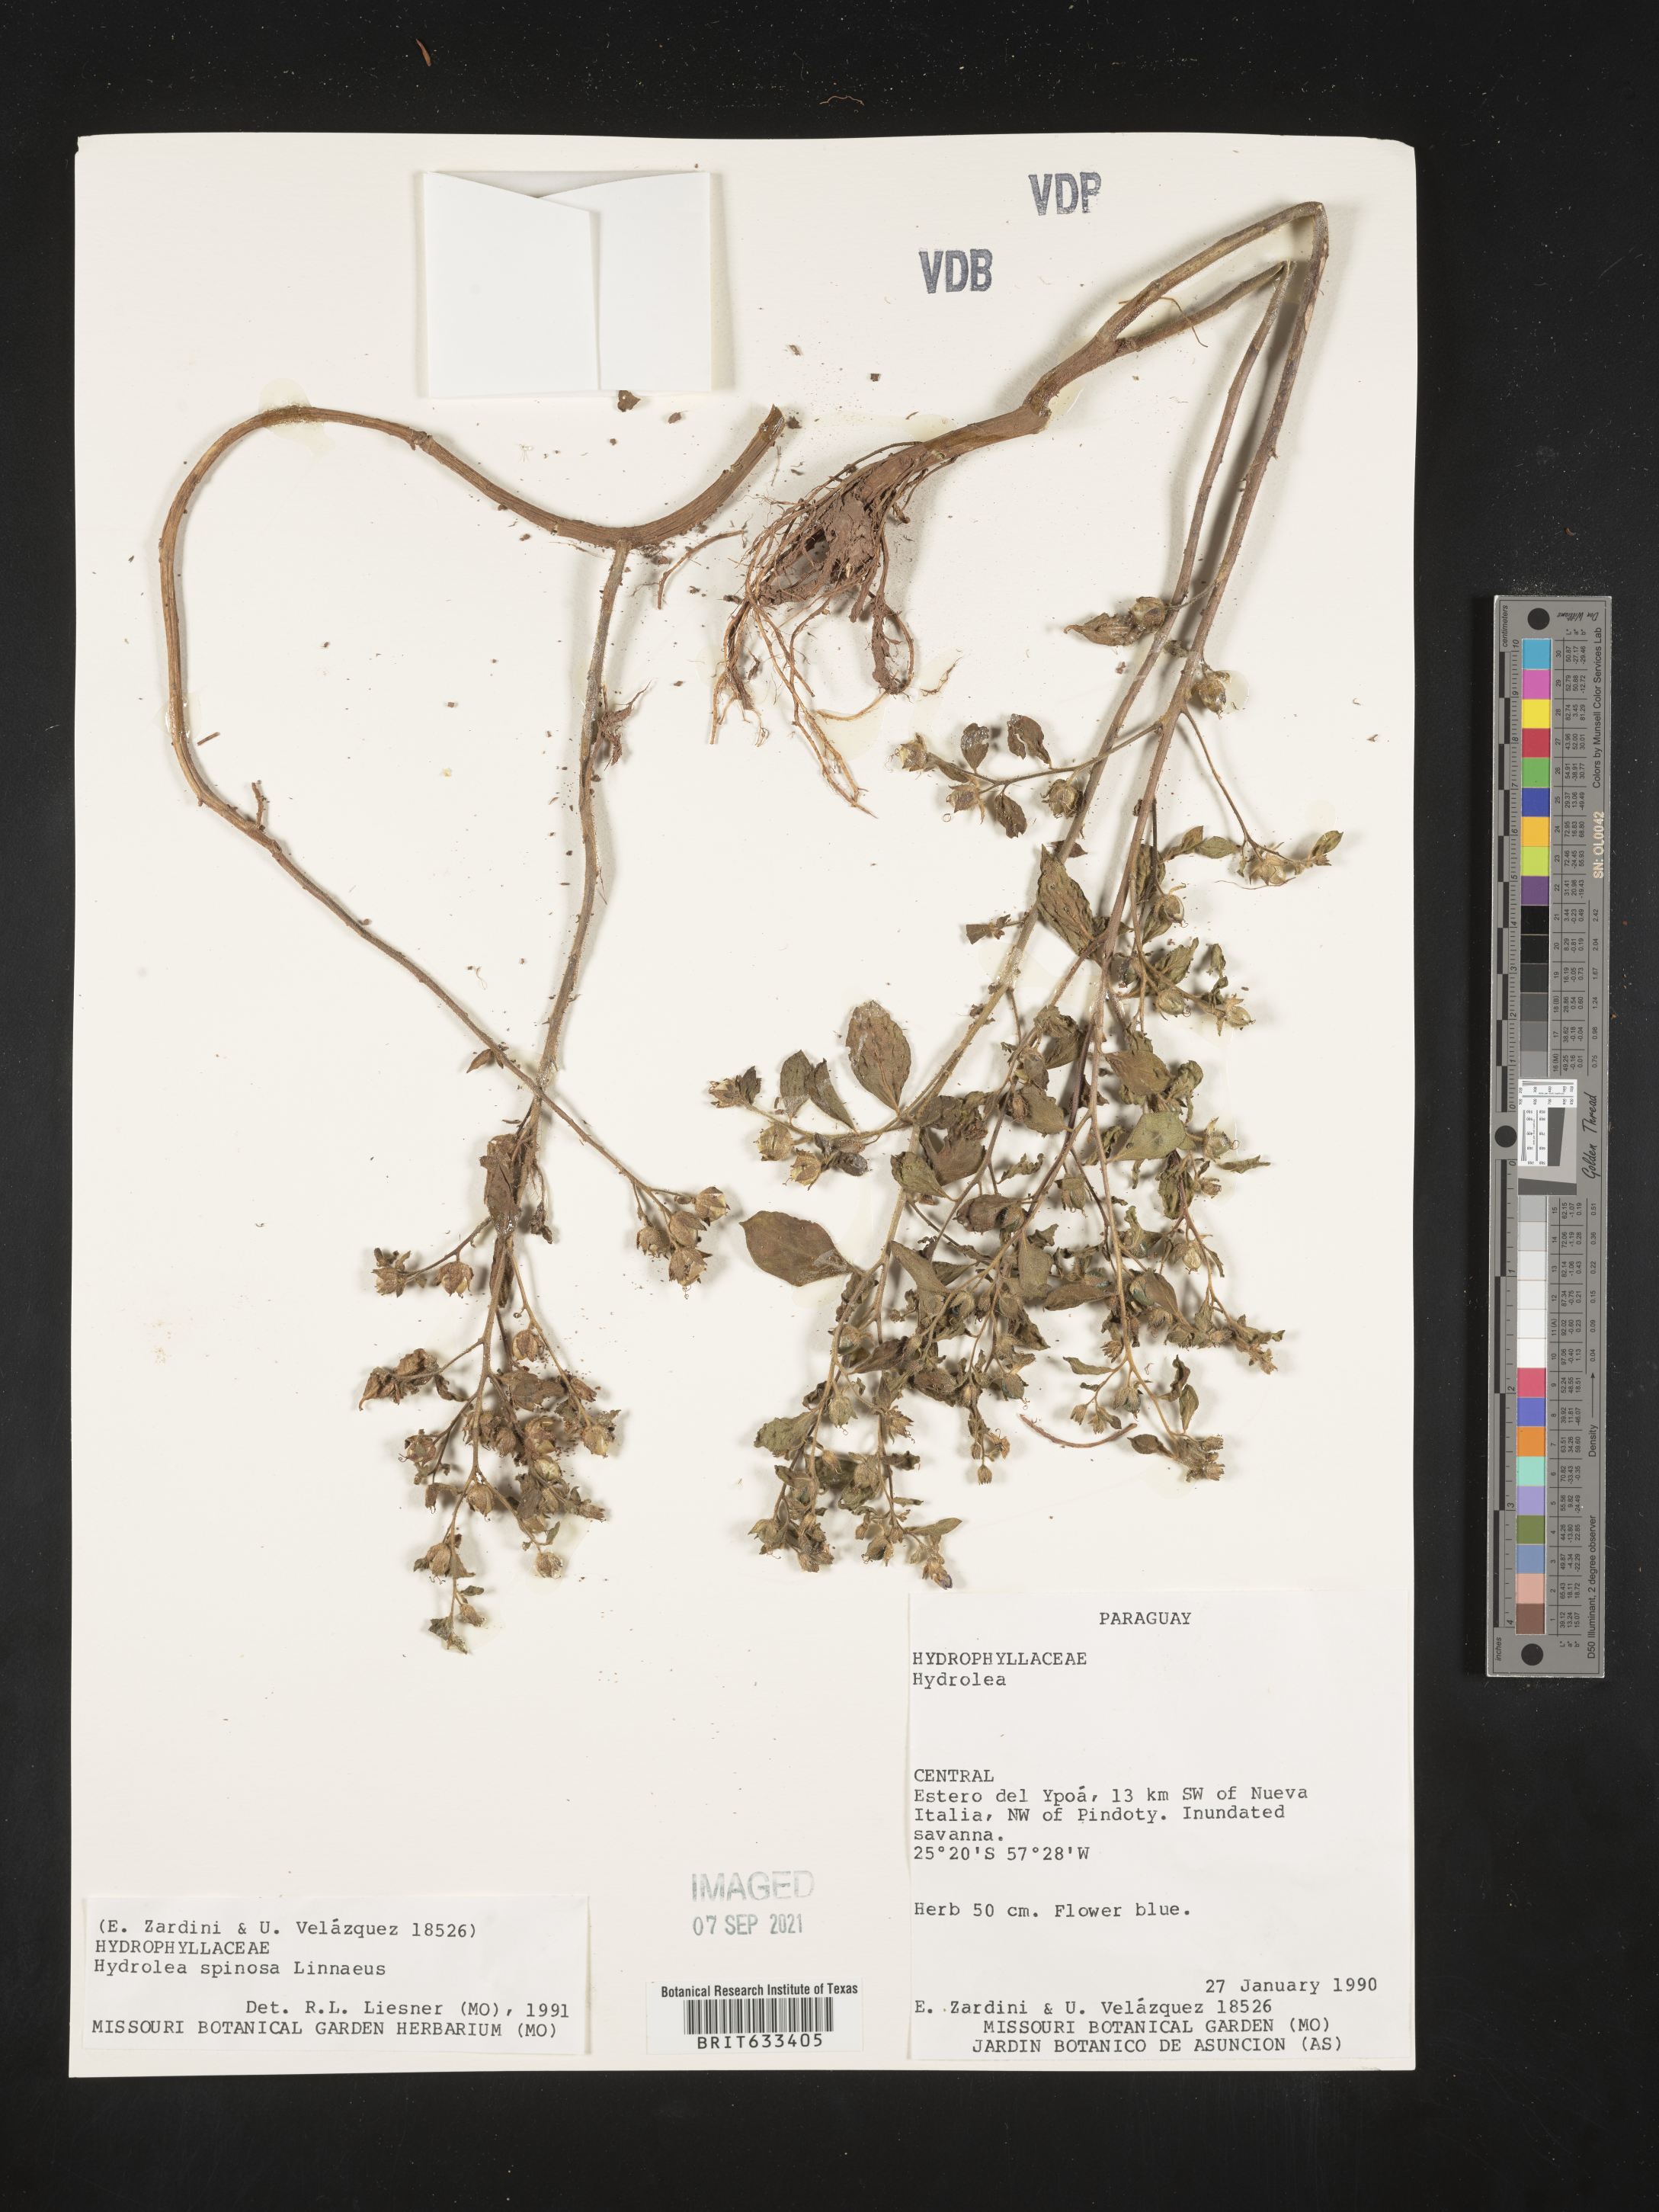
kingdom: Plantae
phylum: Tracheophyta
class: Magnoliopsida
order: Solanales
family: Hydroleaceae
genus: Hydrolea
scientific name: Hydrolea
